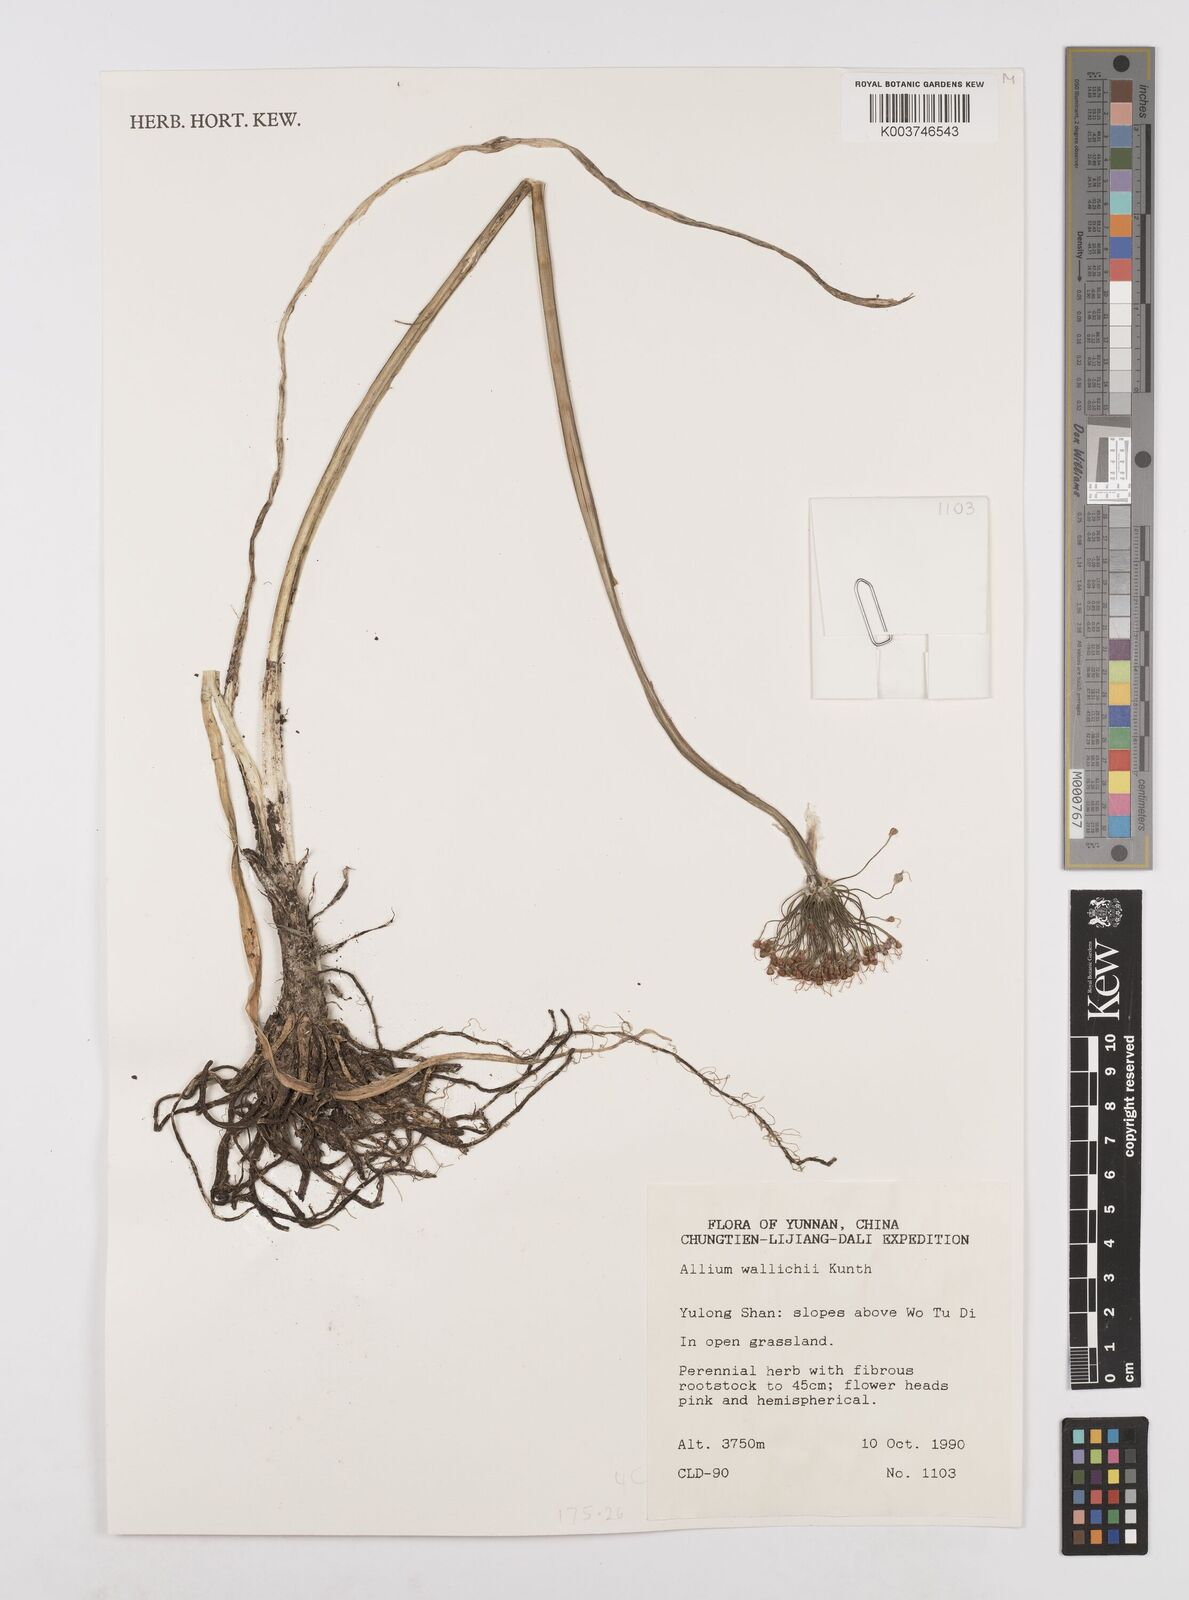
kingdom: Plantae
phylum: Tracheophyta
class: Liliopsida
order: Asparagales
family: Amaryllidaceae
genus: Allium
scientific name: Allium wallichii
